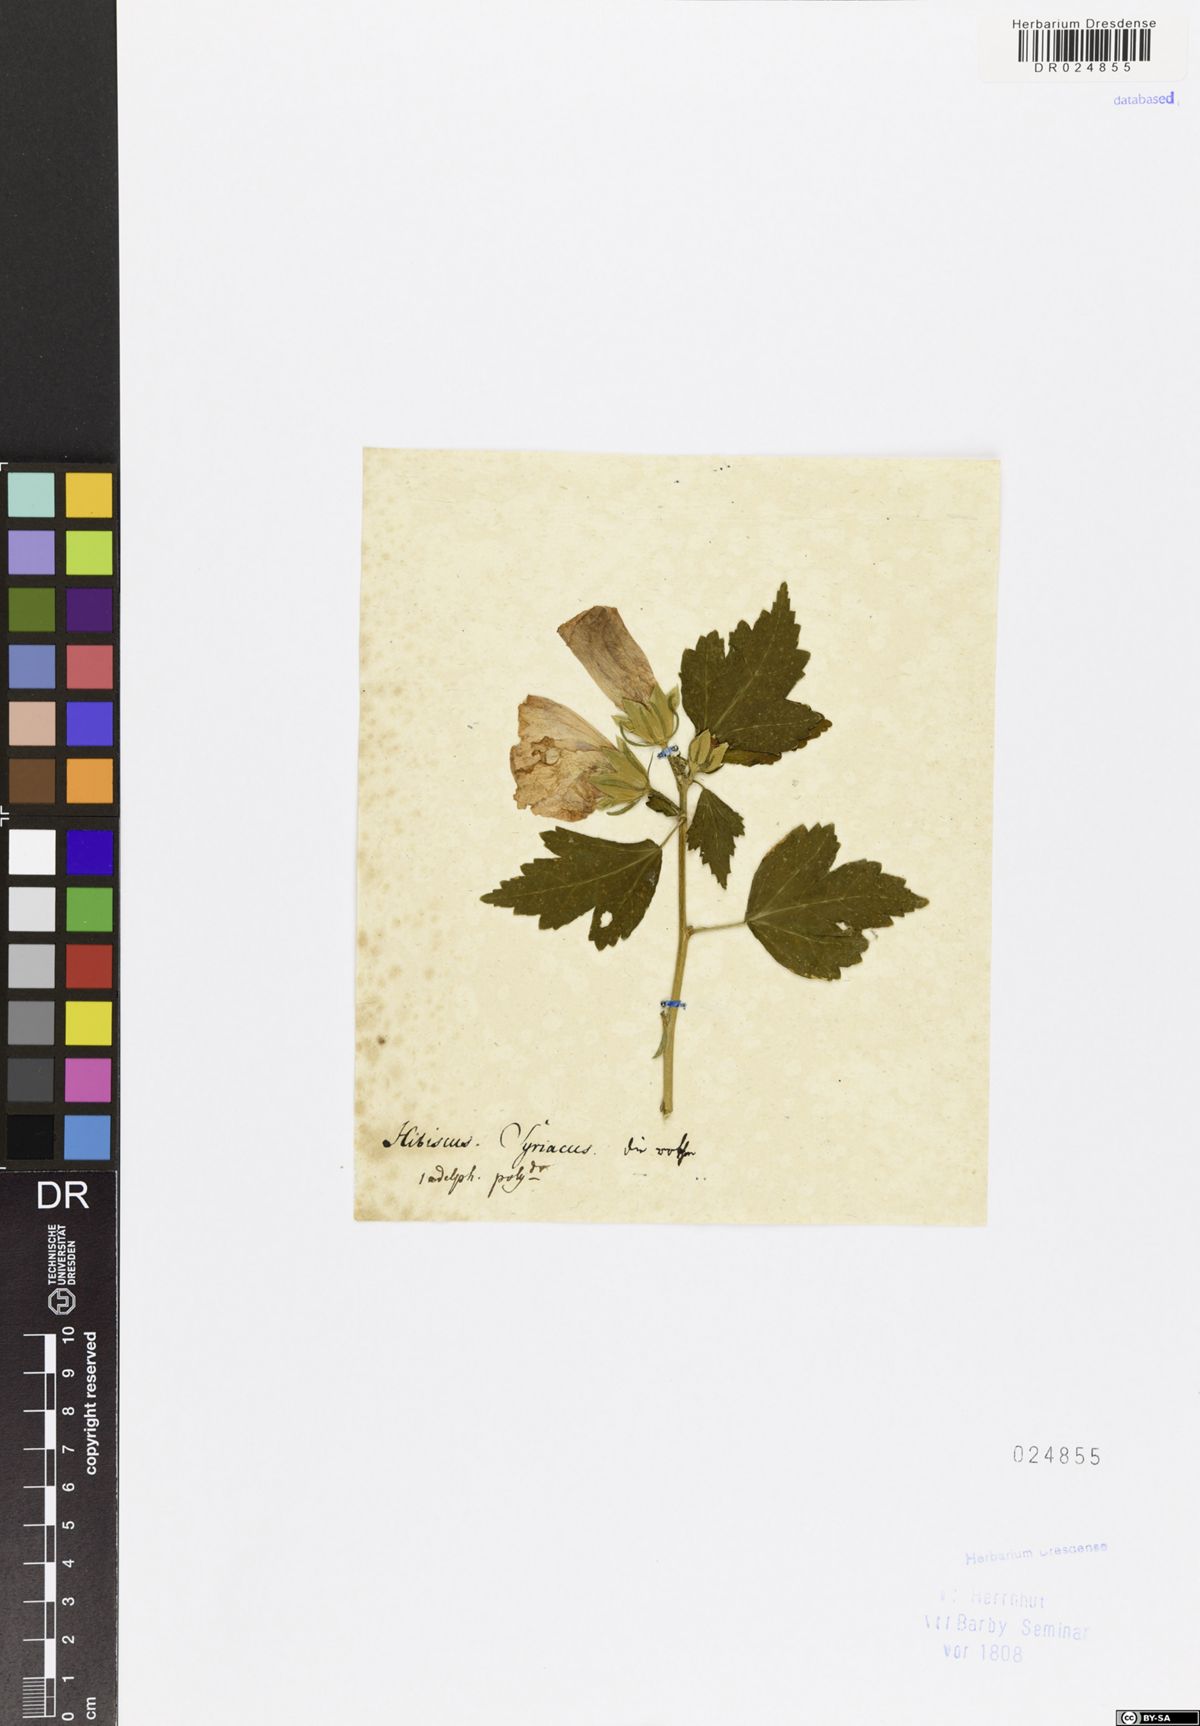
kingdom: Plantae
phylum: Tracheophyta
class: Magnoliopsida
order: Malvales
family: Malvaceae
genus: Hibiscus
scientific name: Hibiscus syriacus
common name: Syrian ketmia
